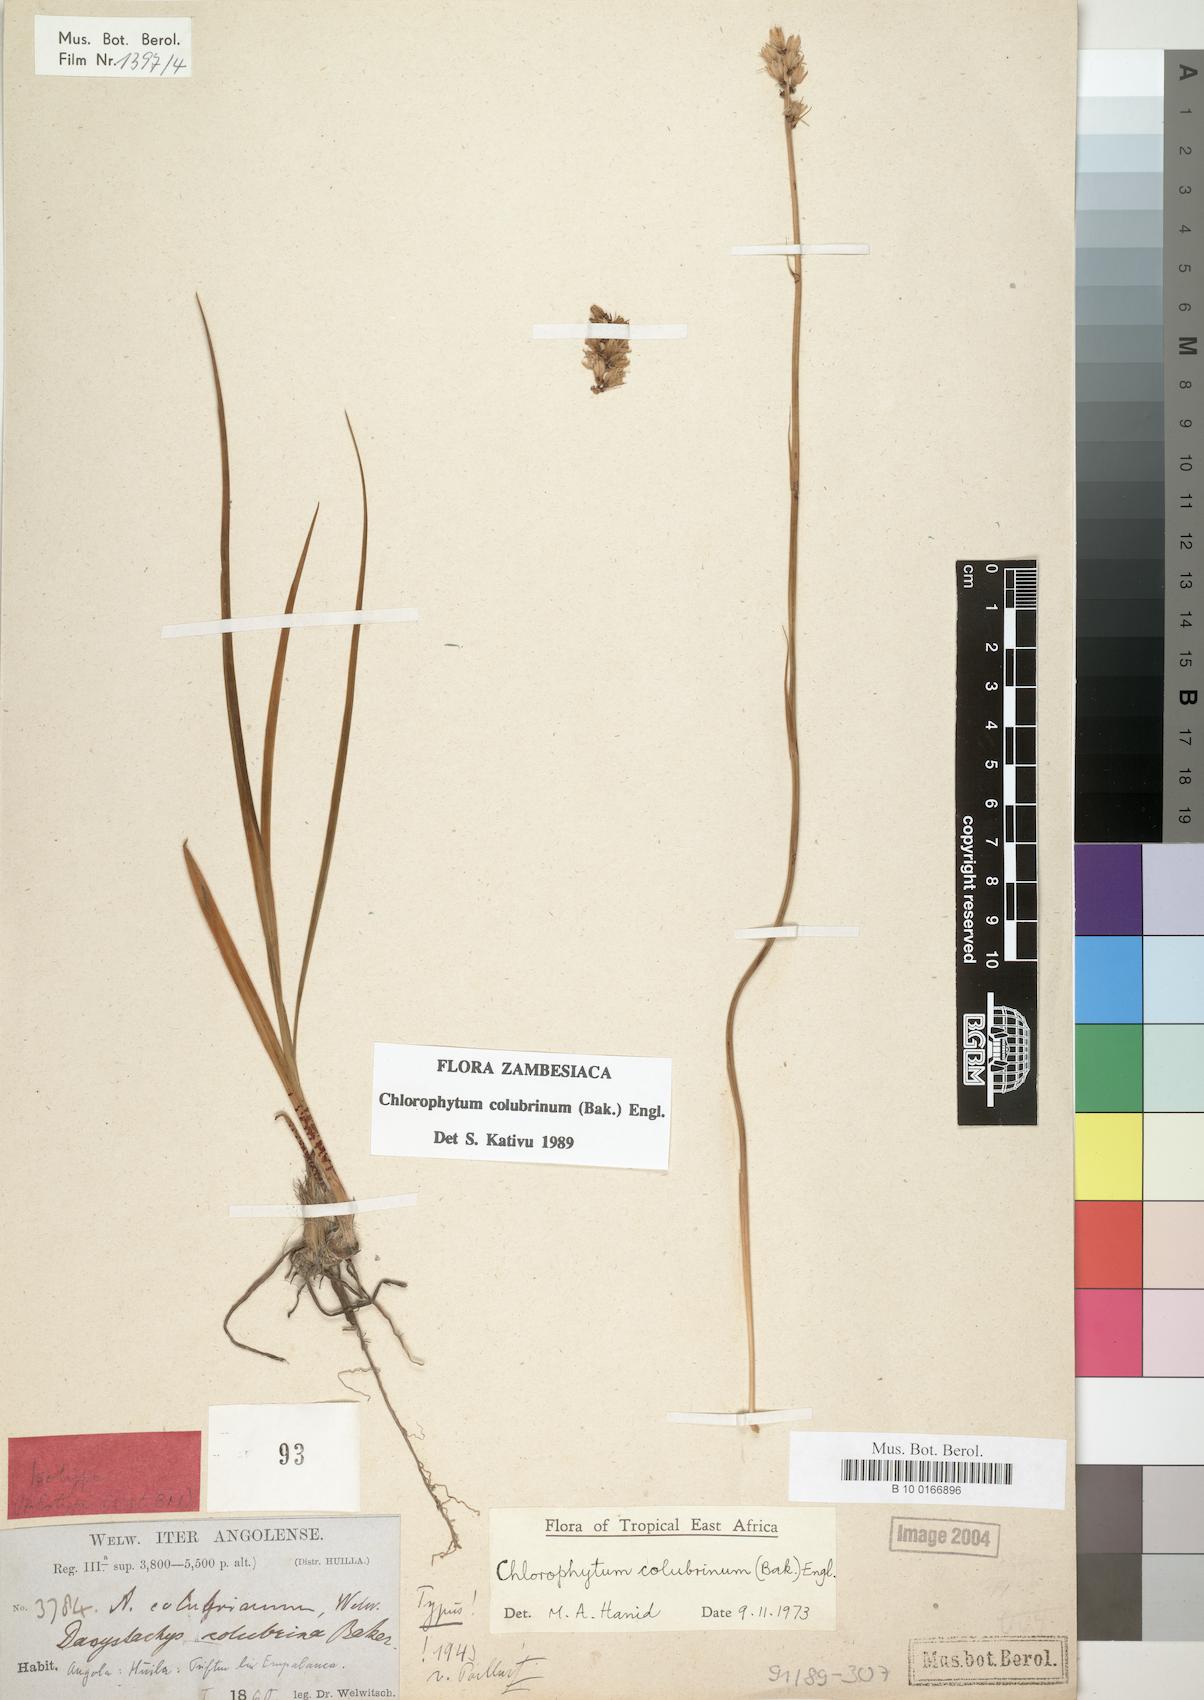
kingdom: Plantae
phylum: Tracheophyta
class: Liliopsida
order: Asparagales
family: Asparagaceae
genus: Chlorophytum
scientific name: Chlorophytum colubrinum
